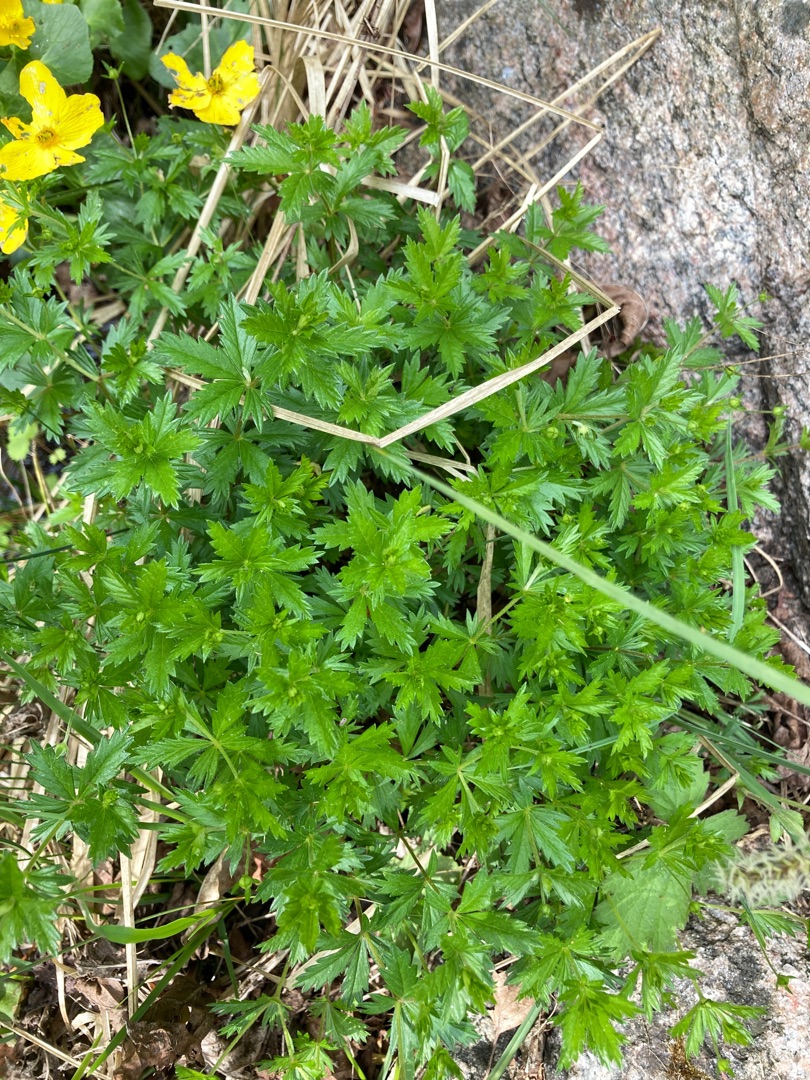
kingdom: Plantae
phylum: Tracheophyta
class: Magnoliopsida
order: Rosales
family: Rosaceae
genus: Potentilla
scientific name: Potentilla erecta
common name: Tormentil
